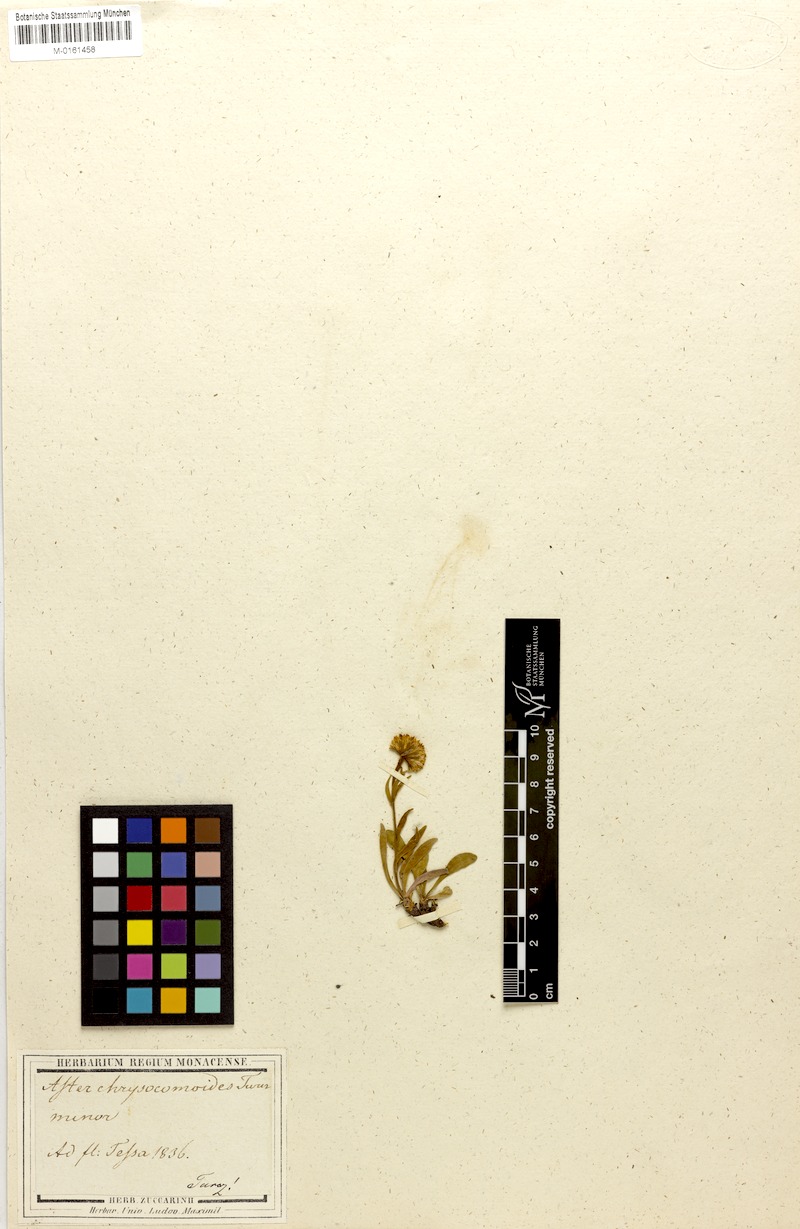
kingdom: Plantae
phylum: Tracheophyta
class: Magnoliopsida
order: Asterales
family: Asteraceae
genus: Aster
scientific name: Aster alpinus
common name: Alpine aster
